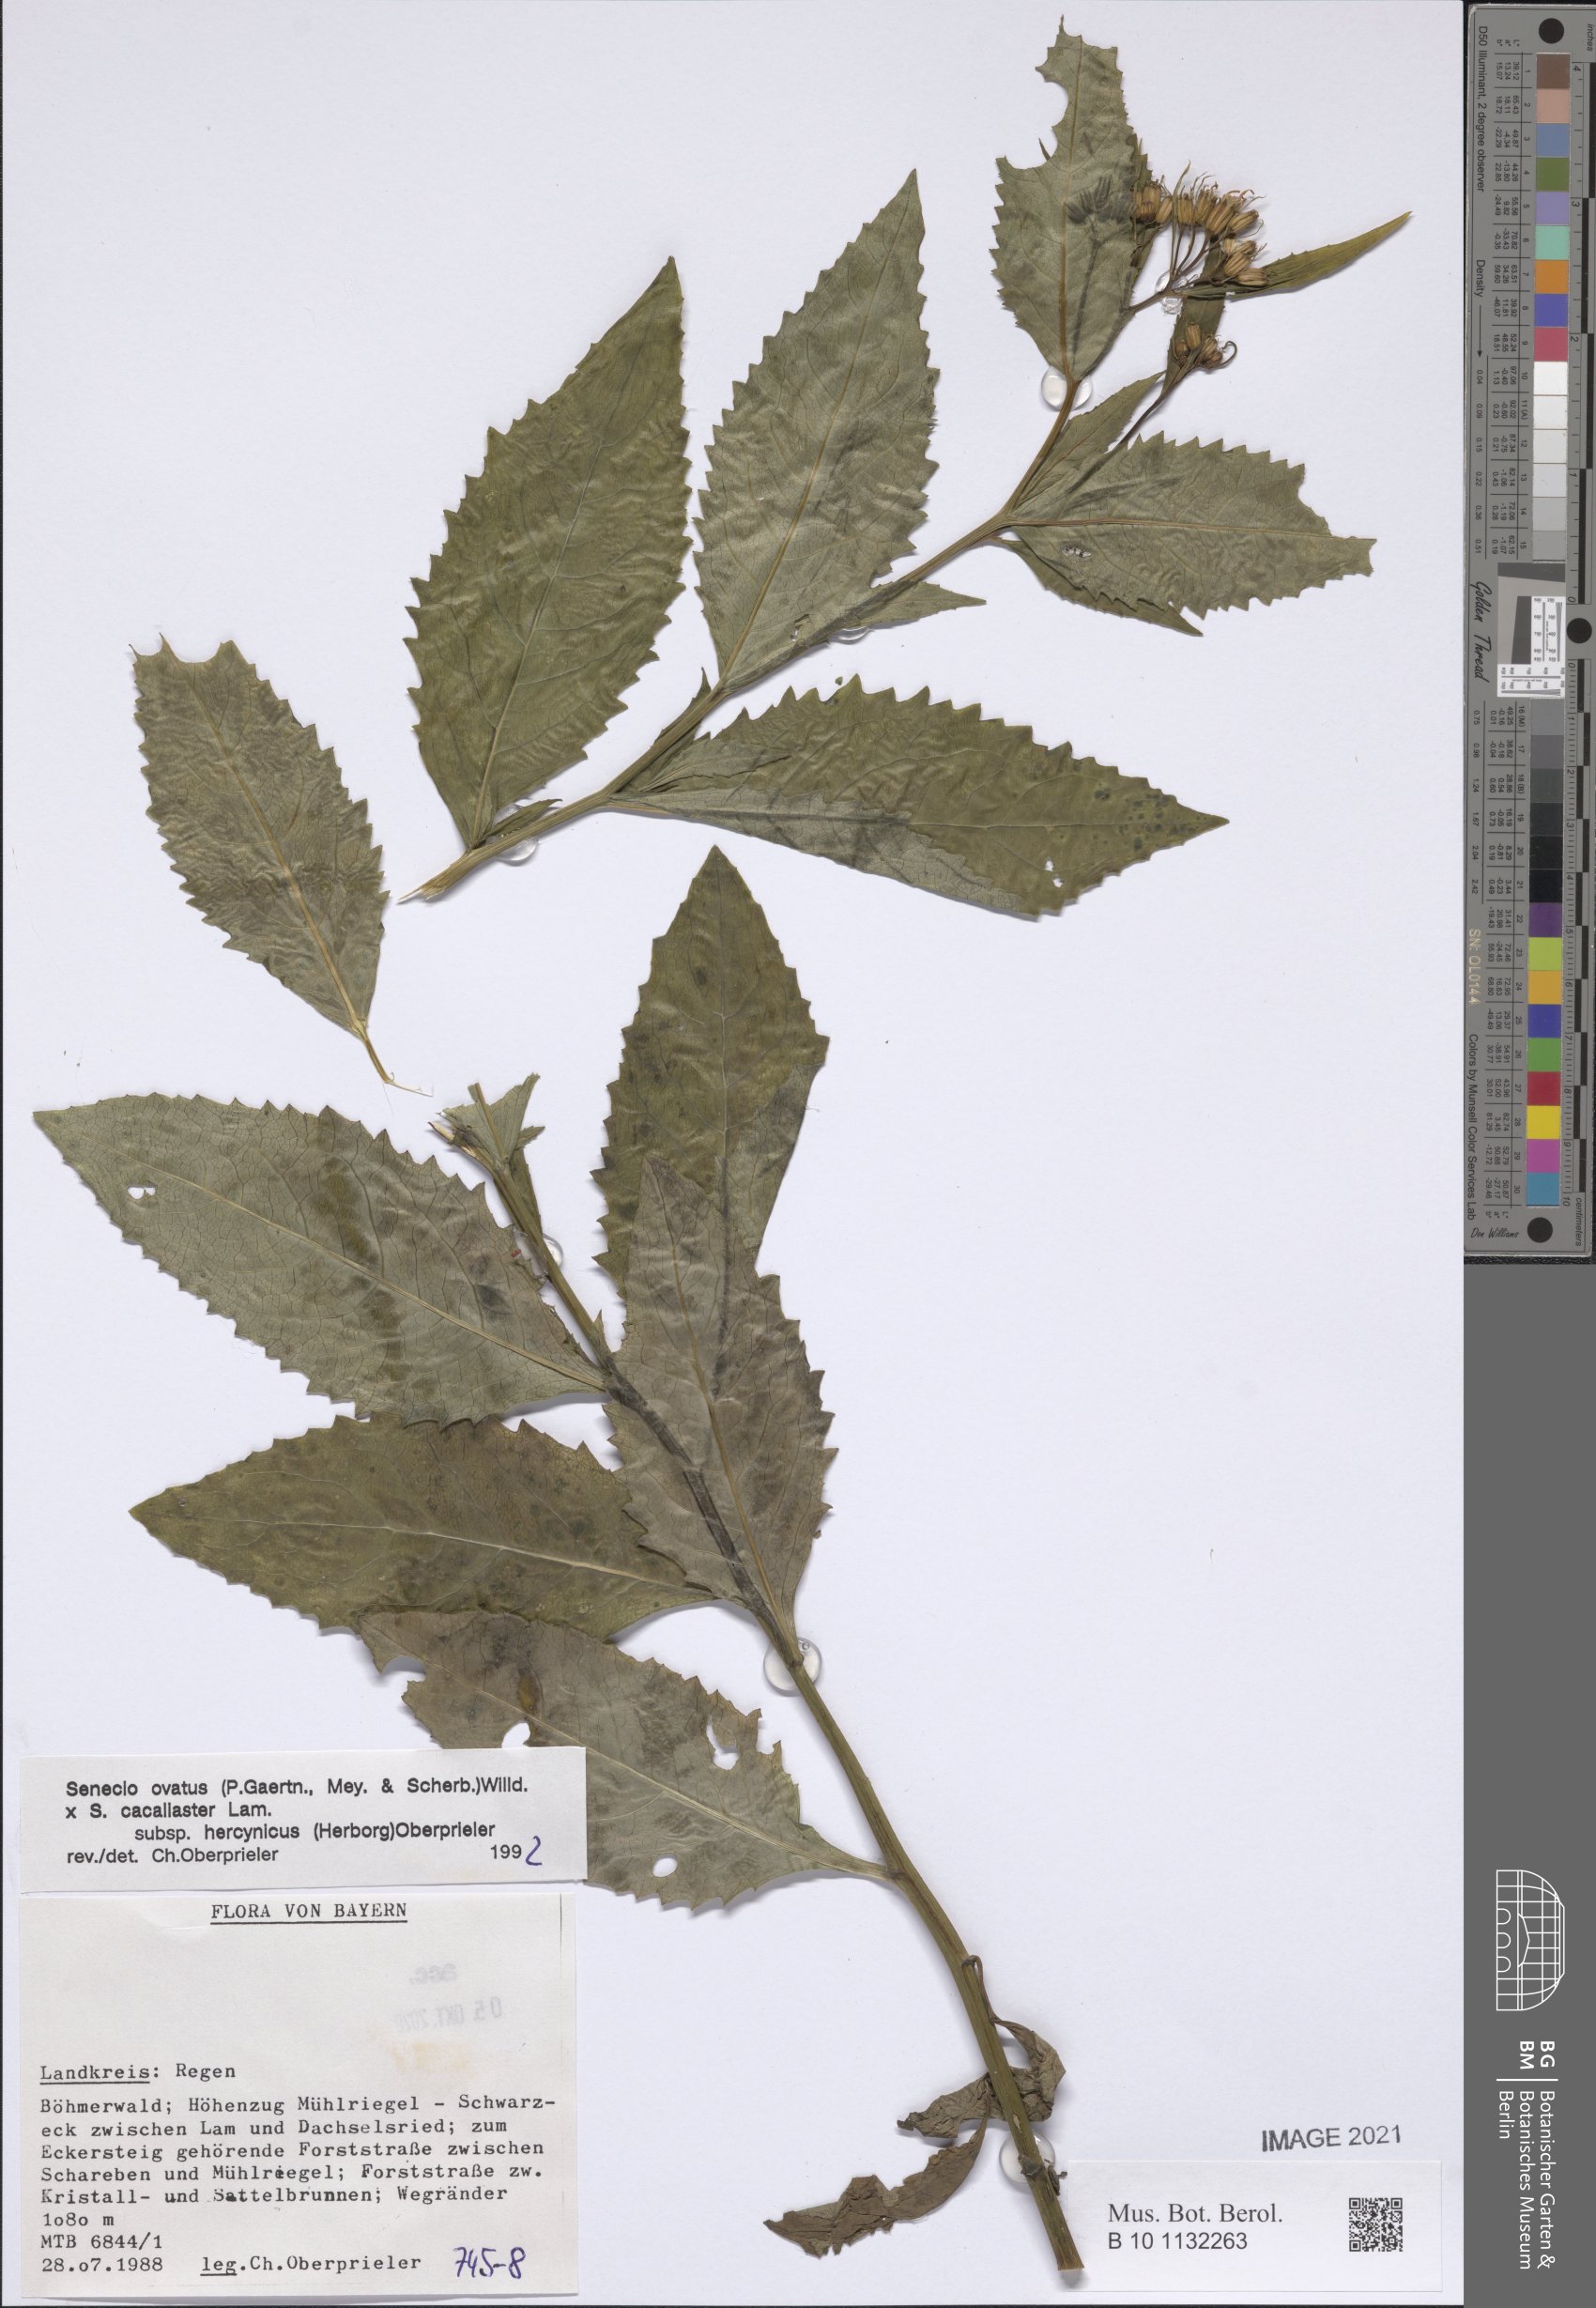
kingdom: Plantae
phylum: Tracheophyta
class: Magnoliopsida
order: Asterales
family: Asteraceae
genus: Senecio
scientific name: Senecio ovatus
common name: Wood ragwort
